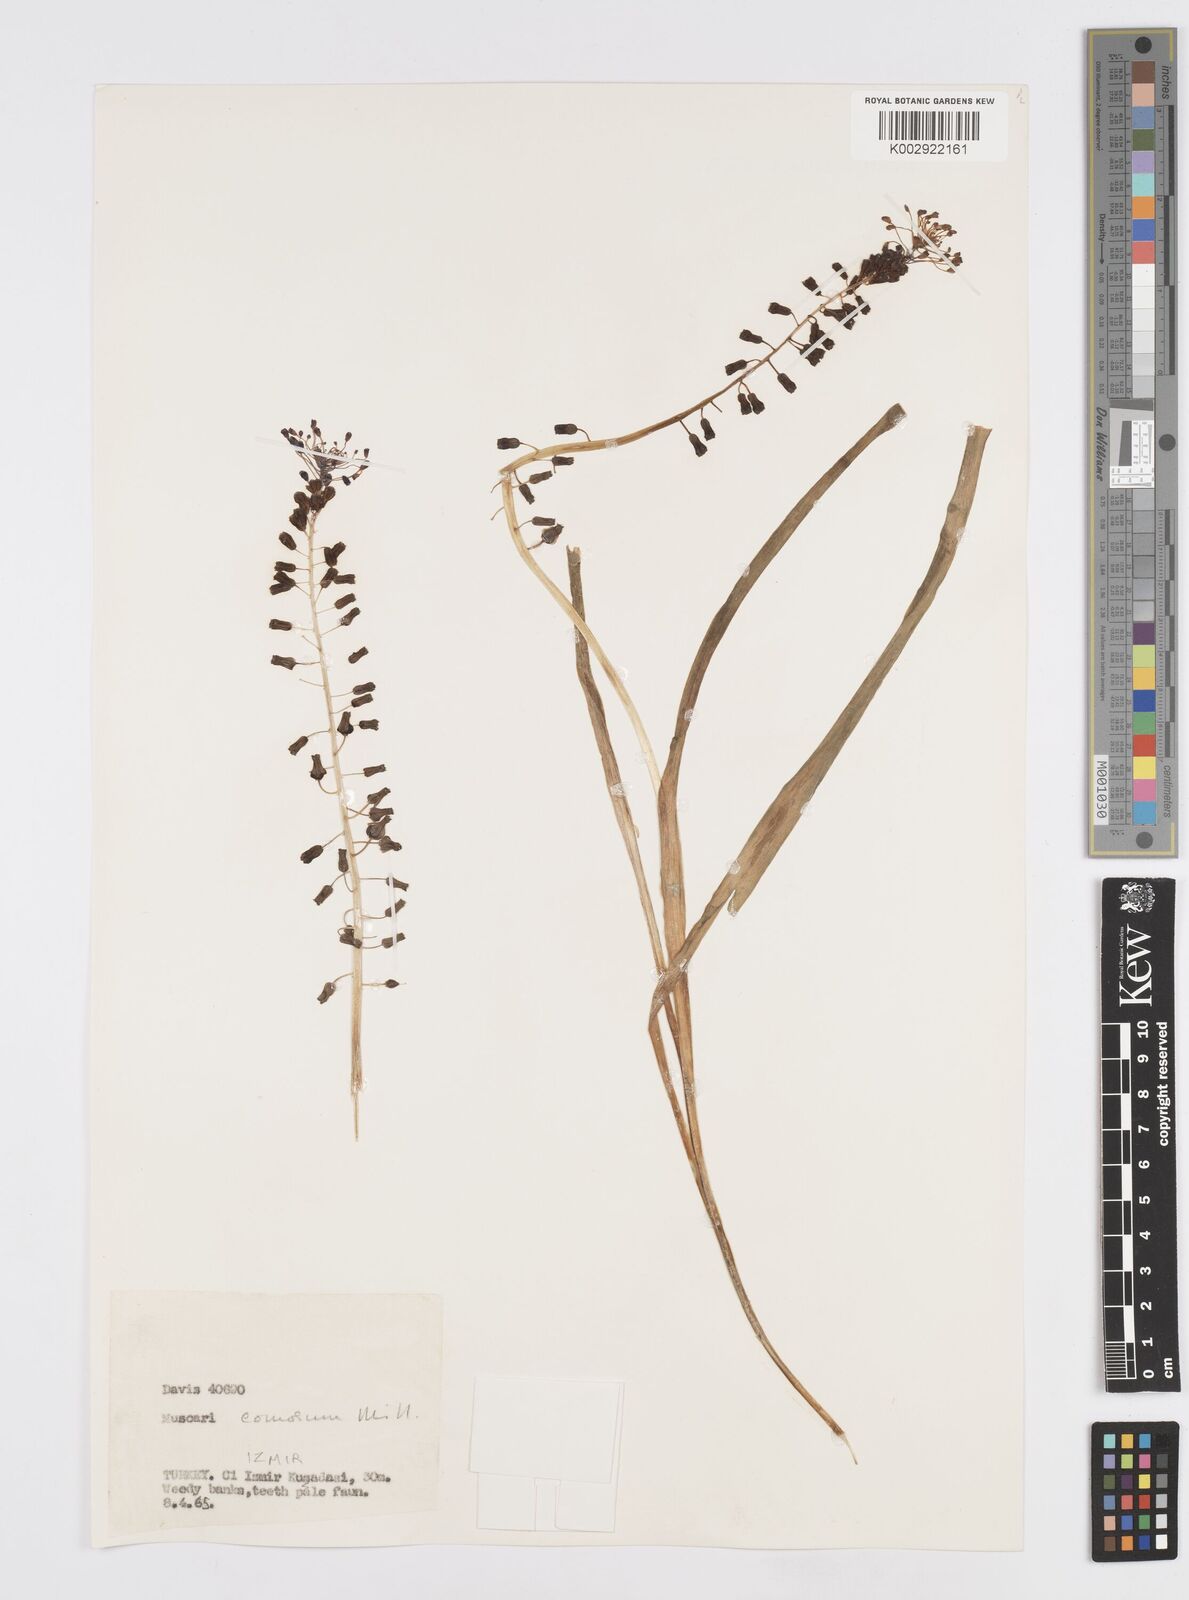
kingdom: Plantae
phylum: Tracheophyta
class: Liliopsida
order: Asparagales
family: Asparagaceae
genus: Muscari
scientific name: Muscari comosum
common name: Tassel hyacinth
